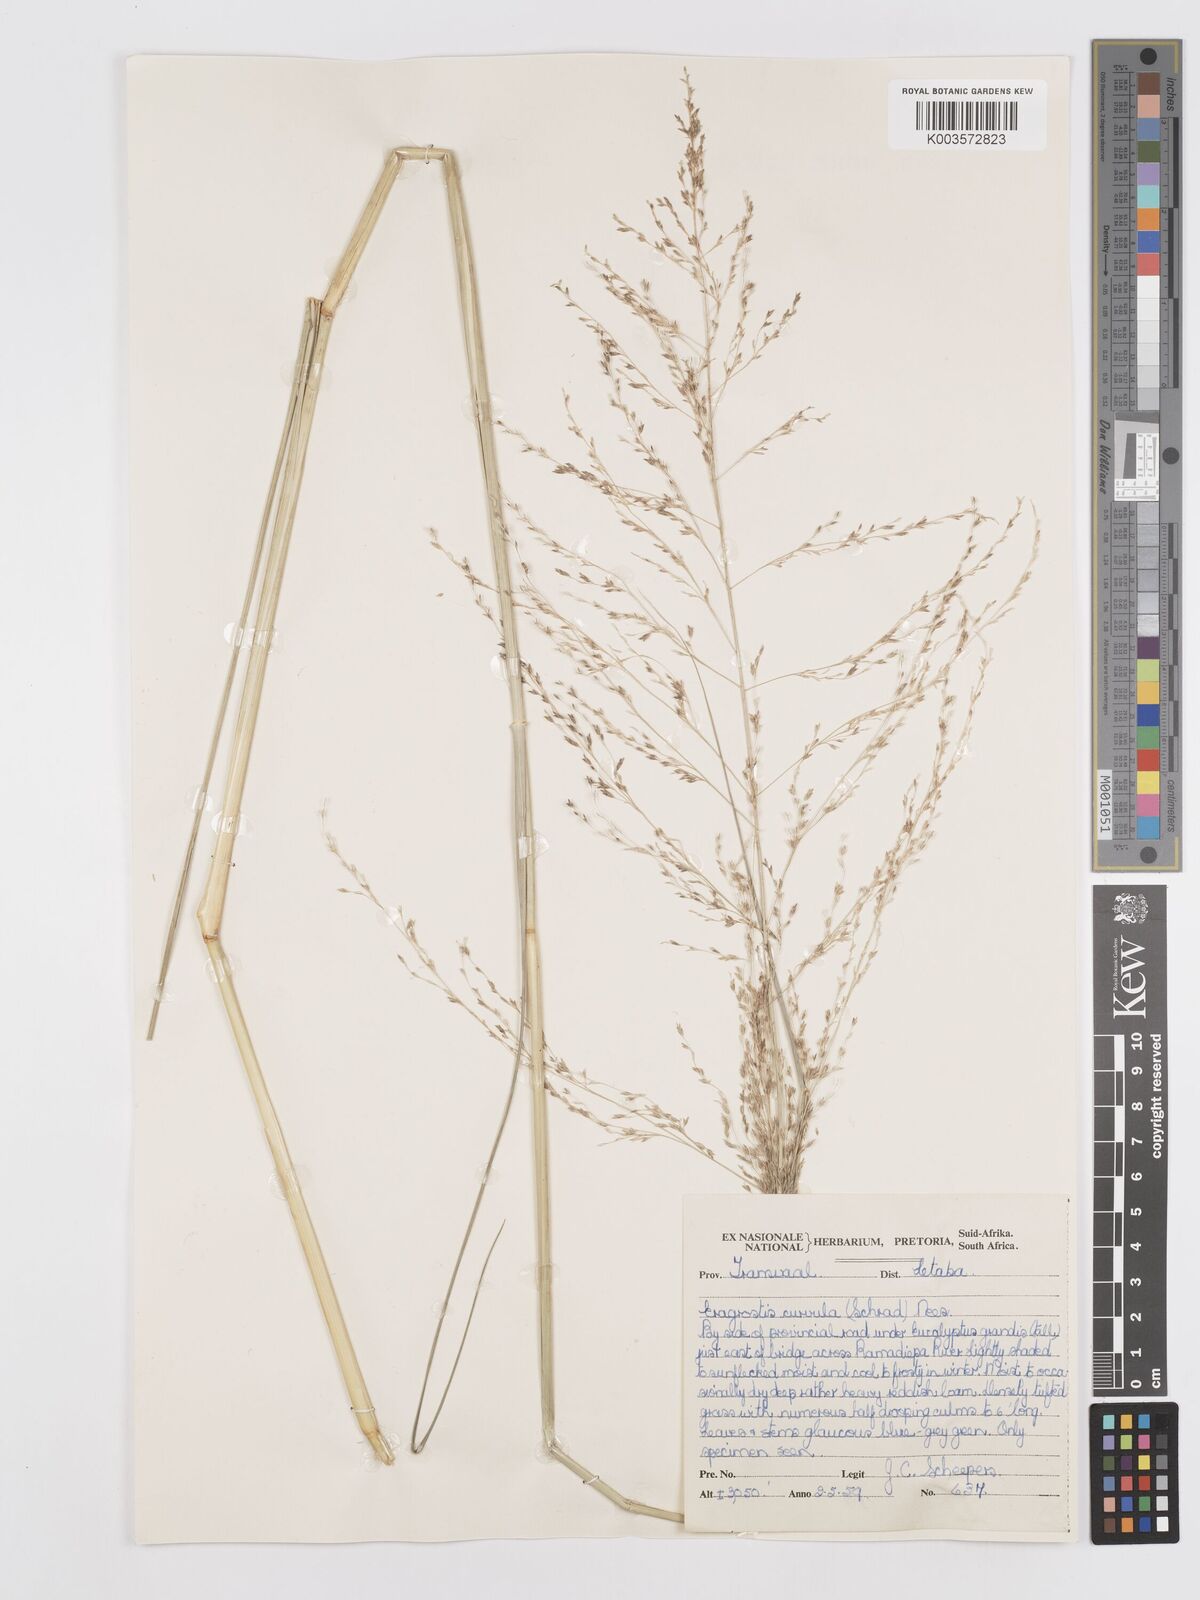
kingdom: Plantae
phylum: Tracheophyta
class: Liliopsida
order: Poales
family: Poaceae
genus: Eragrostis
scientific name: Eragrostis curvula
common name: African love-grass
